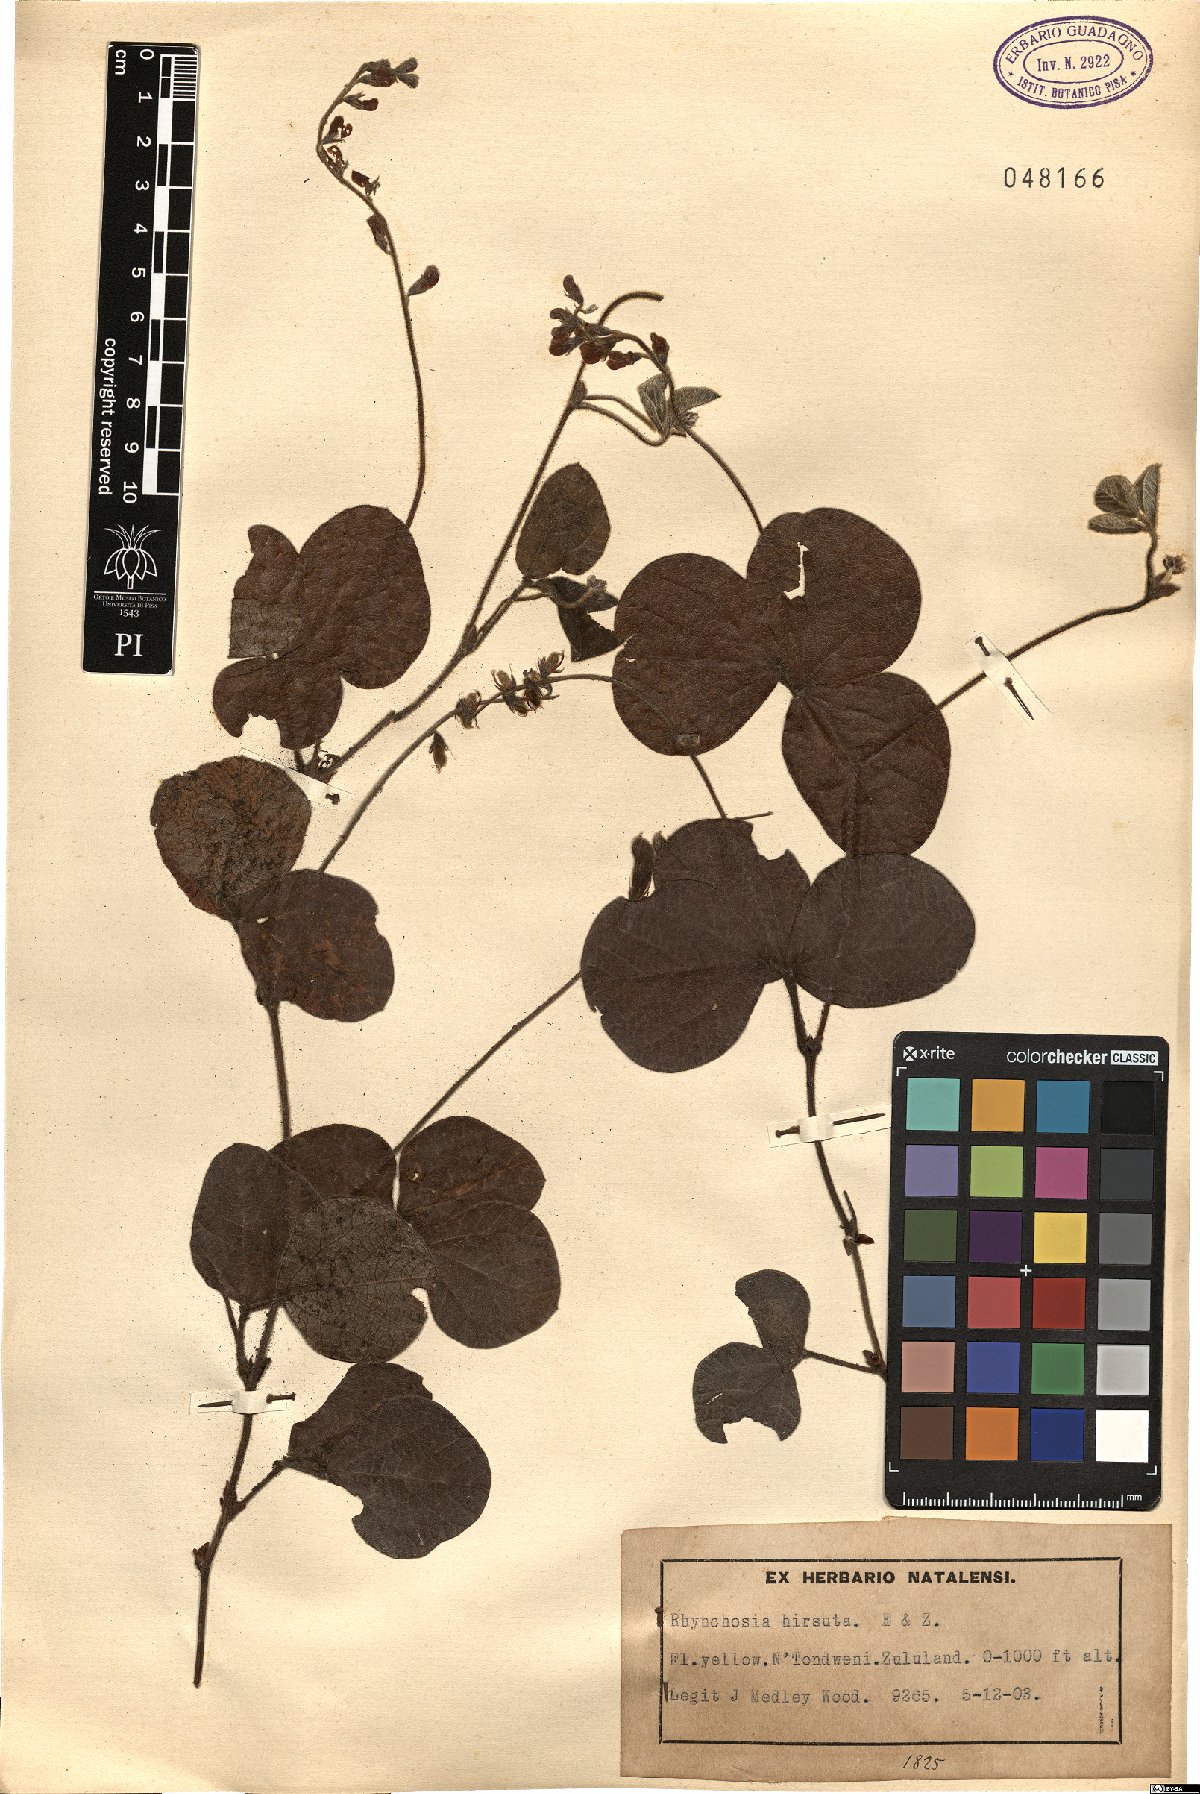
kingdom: Plantae
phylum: Tracheophyta
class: Magnoliopsida
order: Fabales
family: Fabaceae
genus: Rhynchosia
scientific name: Rhynchosia hirsuta
